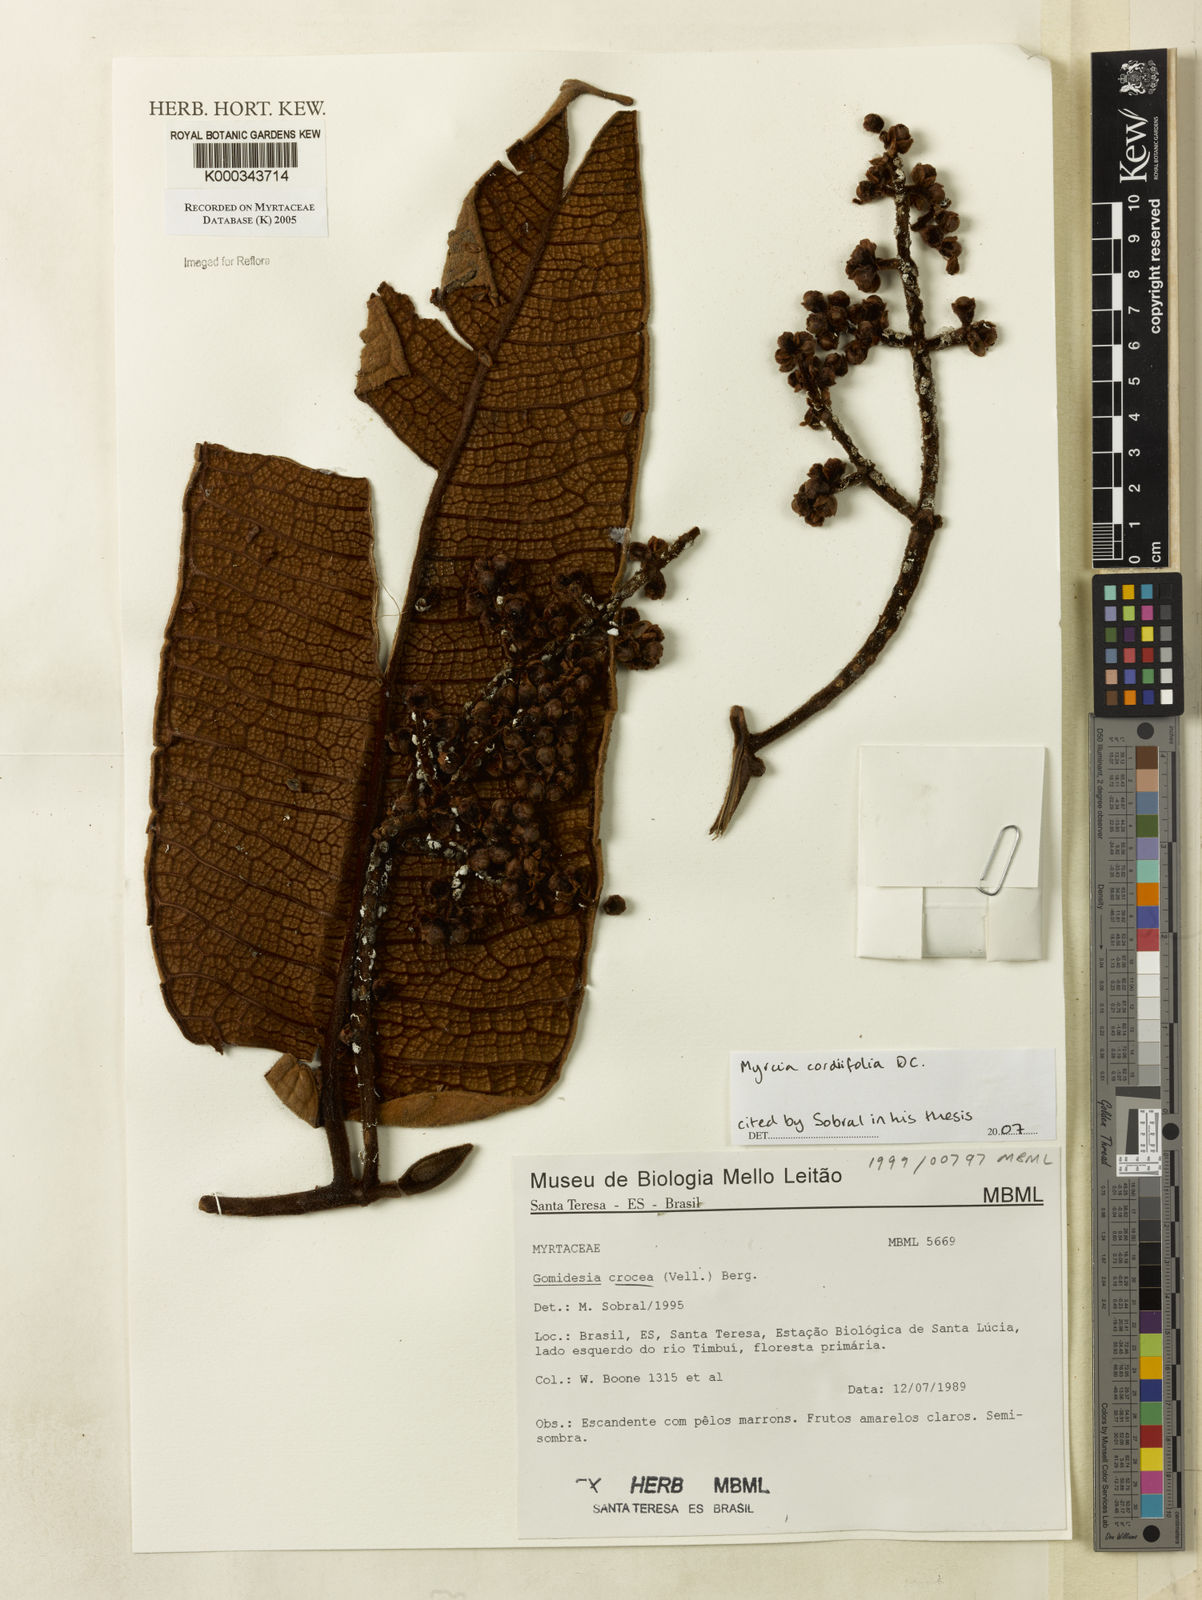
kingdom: Plantae
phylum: Tracheophyta
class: Magnoliopsida
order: Myrtales
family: Myrtaceae
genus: Myrcia
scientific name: Myrcia
